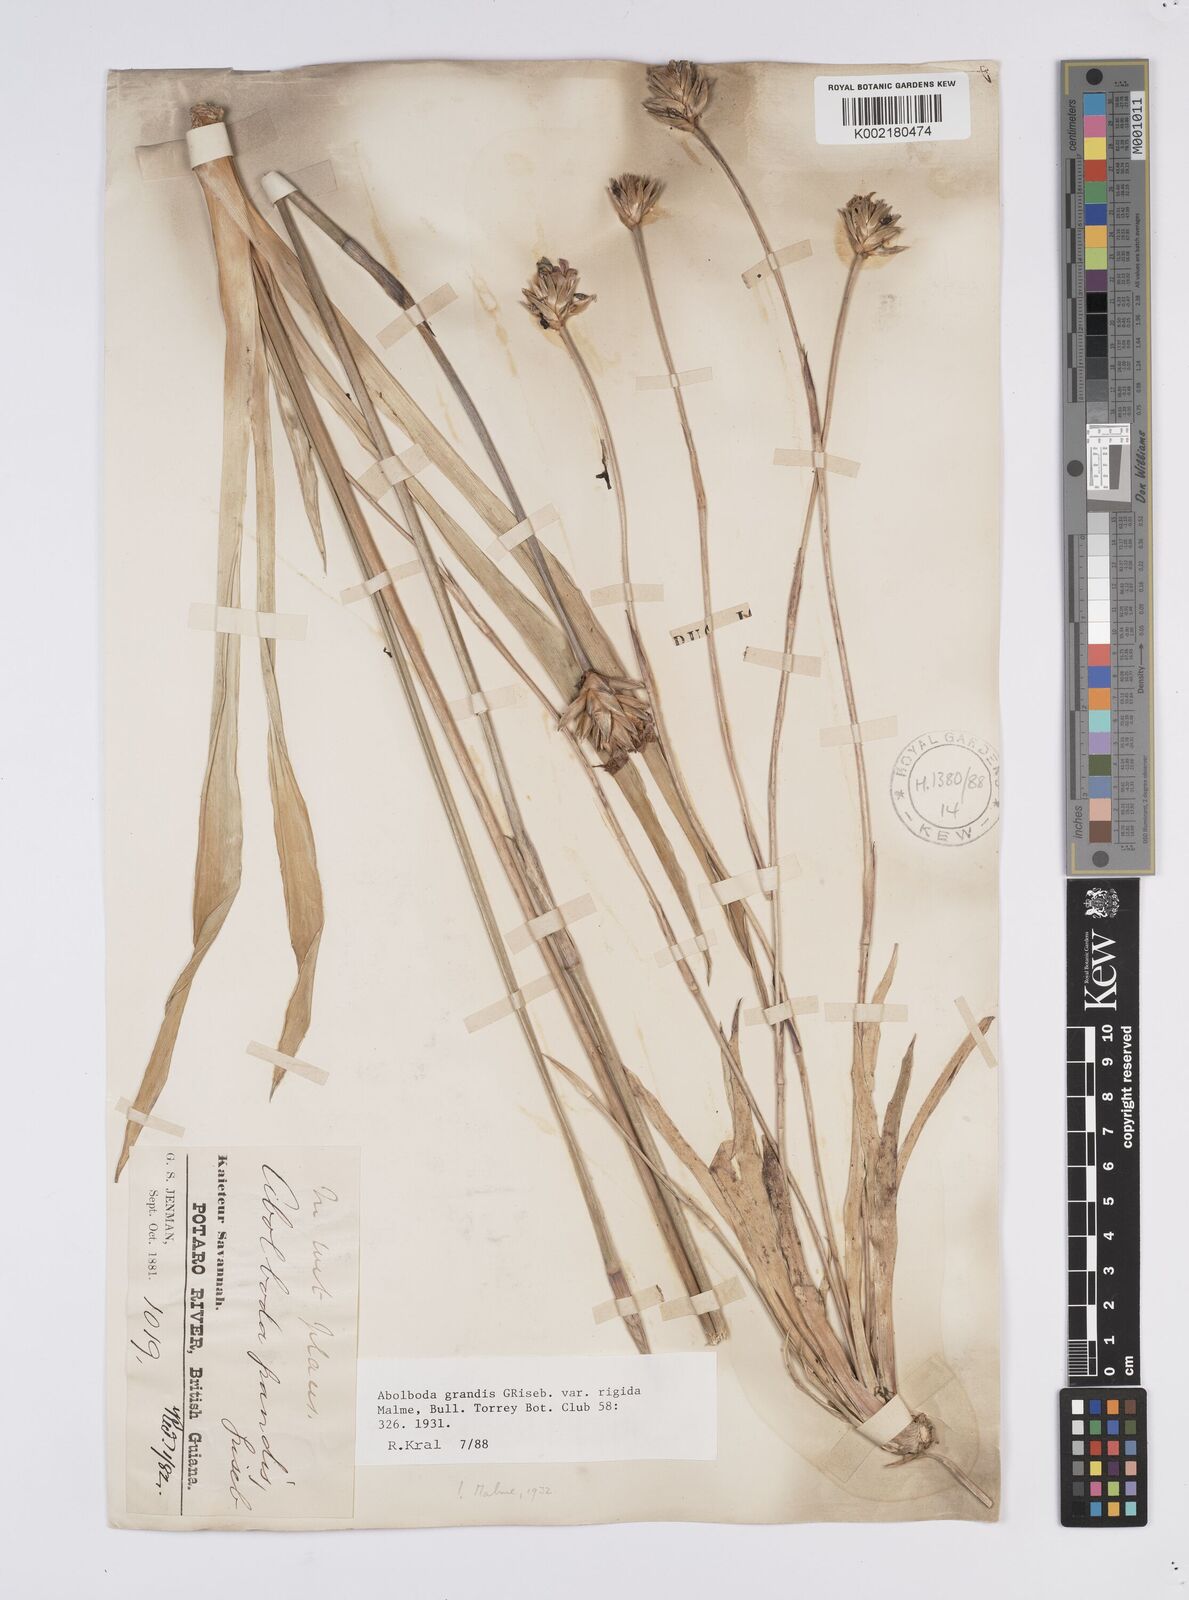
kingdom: Plantae
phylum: Tracheophyta
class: Liliopsida
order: Poales
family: Xyridaceae
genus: Abolboda
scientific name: Abolboda grandis
